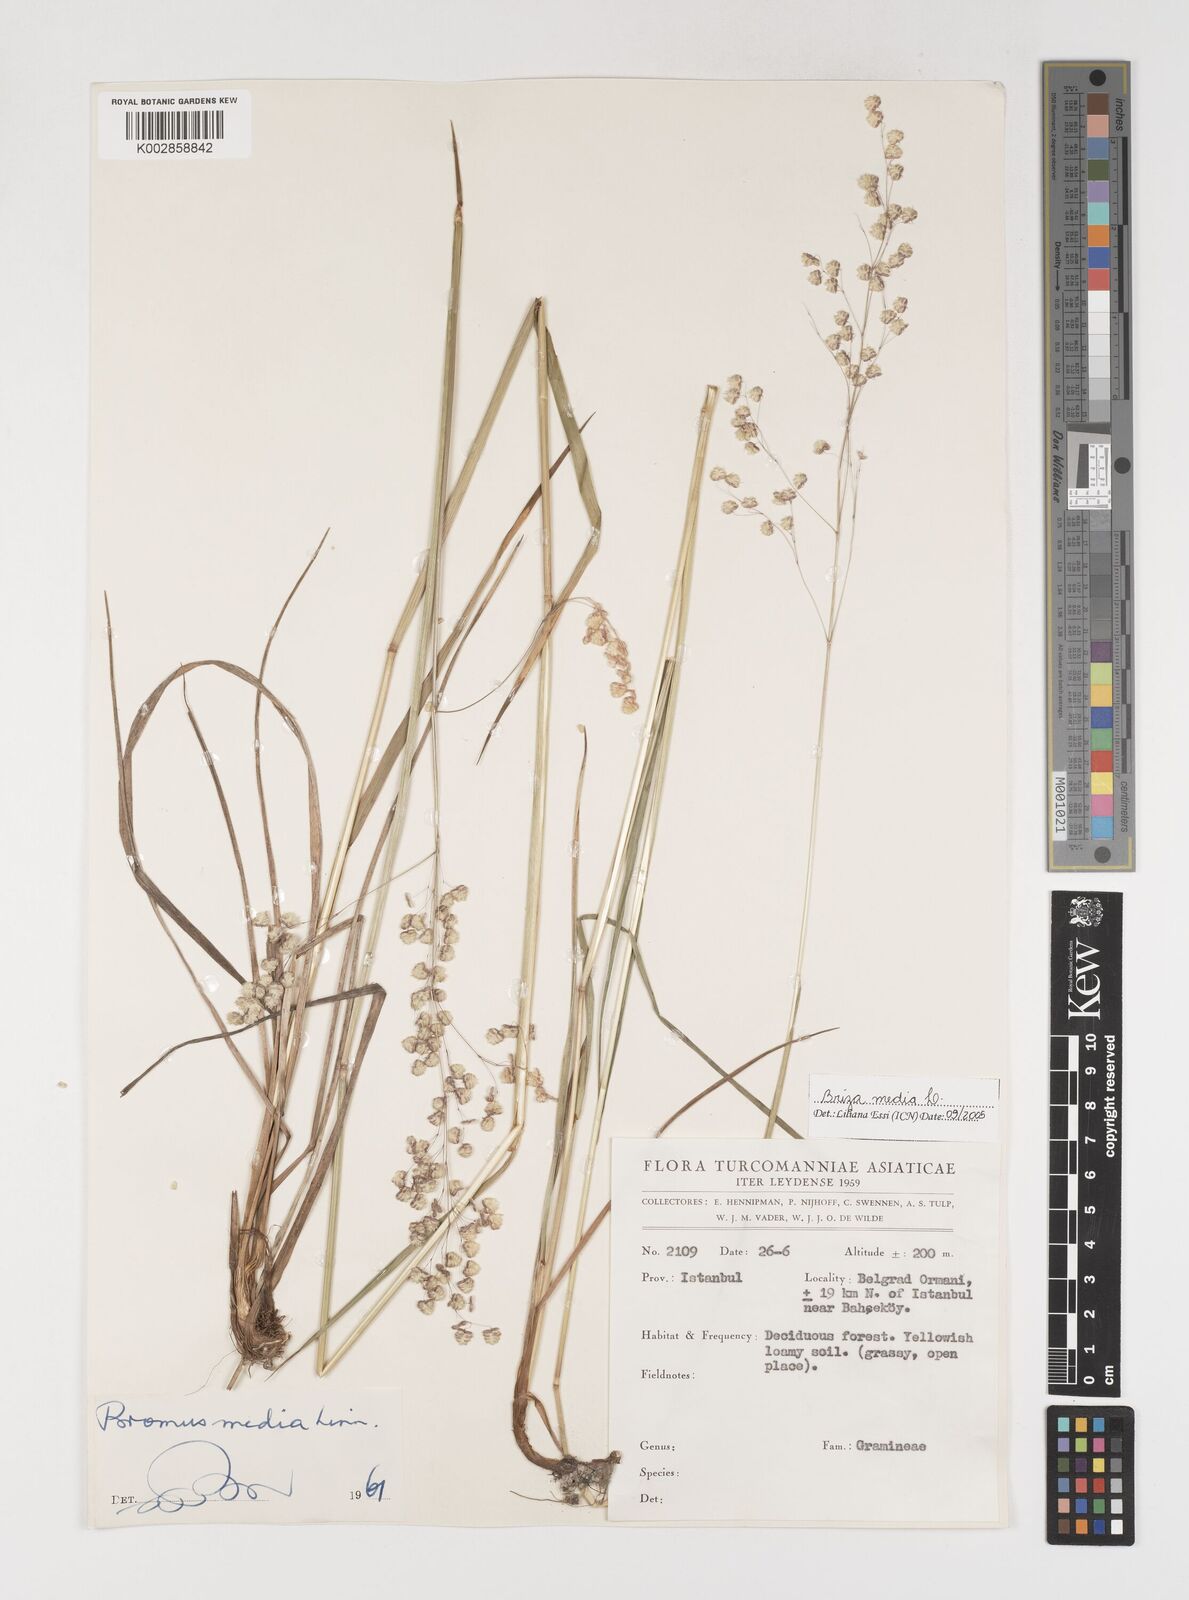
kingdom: Plantae
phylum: Tracheophyta
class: Liliopsida
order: Poales
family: Poaceae
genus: Briza
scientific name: Briza media
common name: Quaking grass
